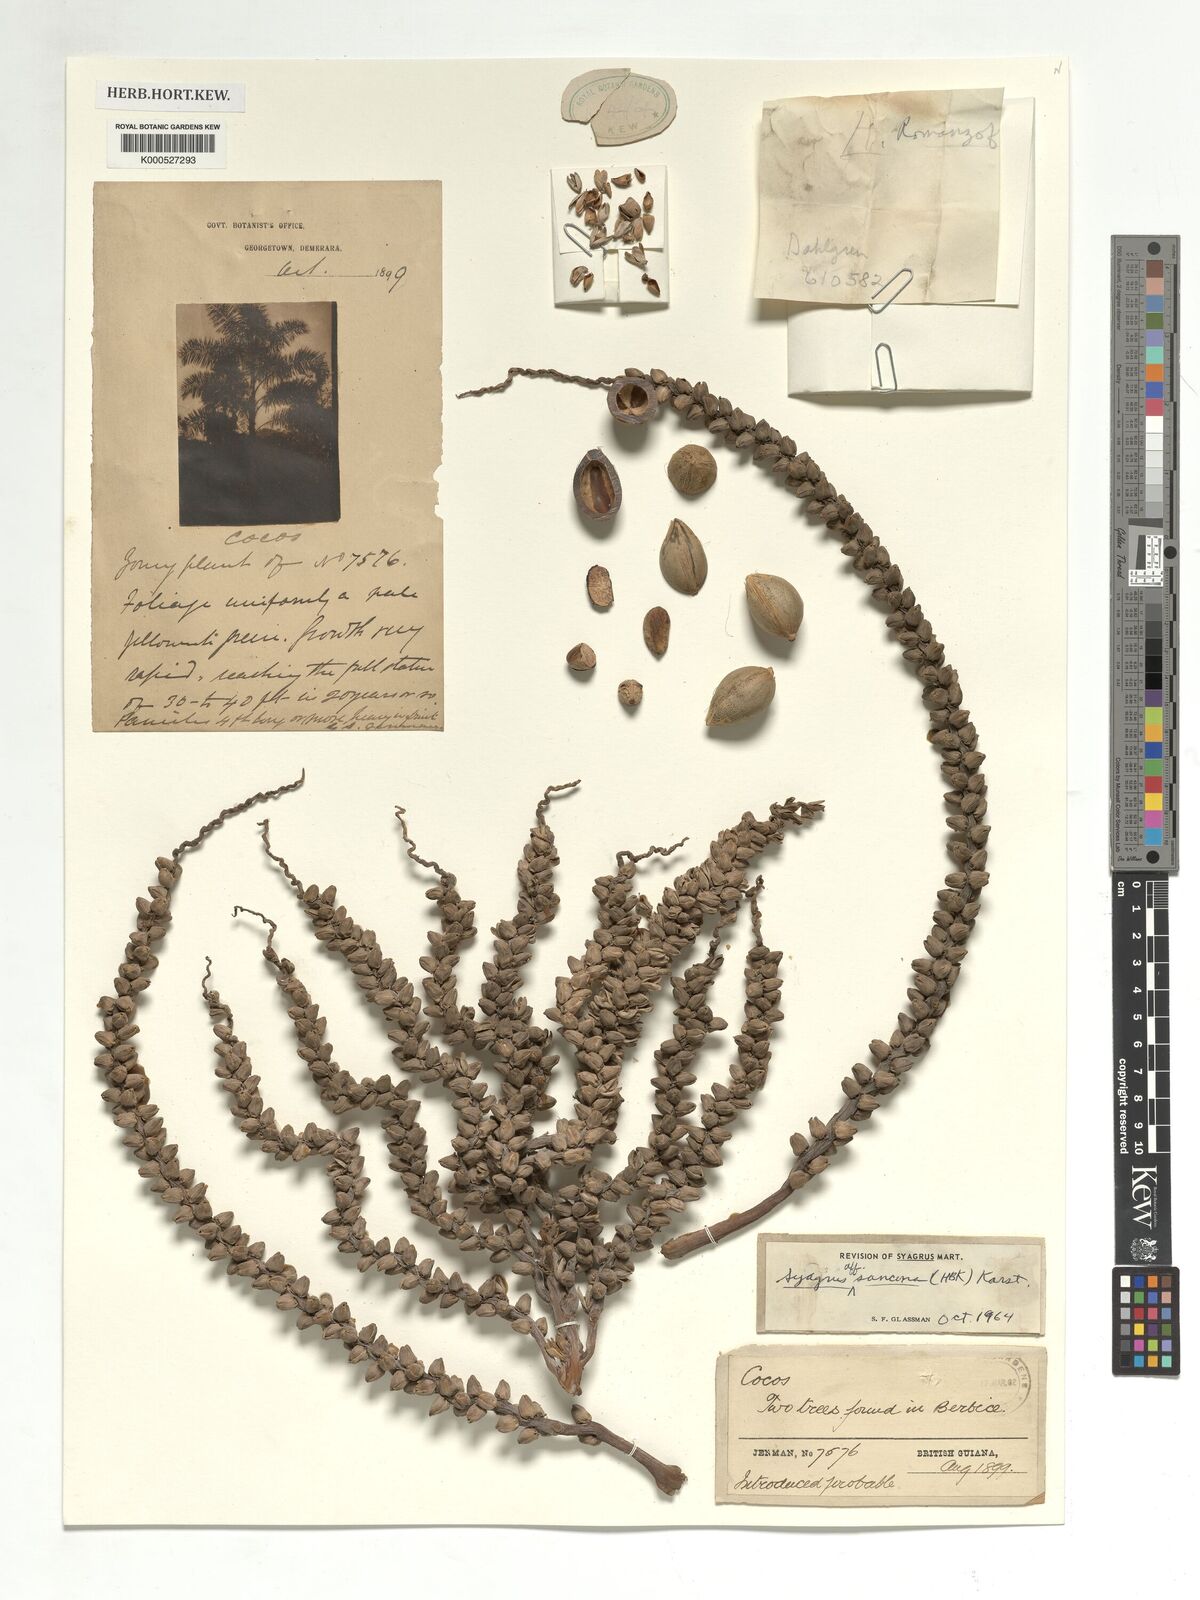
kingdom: Plantae
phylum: Tracheophyta
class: Liliopsida
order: Arecales
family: Arecaceae
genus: Syagrus
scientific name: Syagrus sancona
